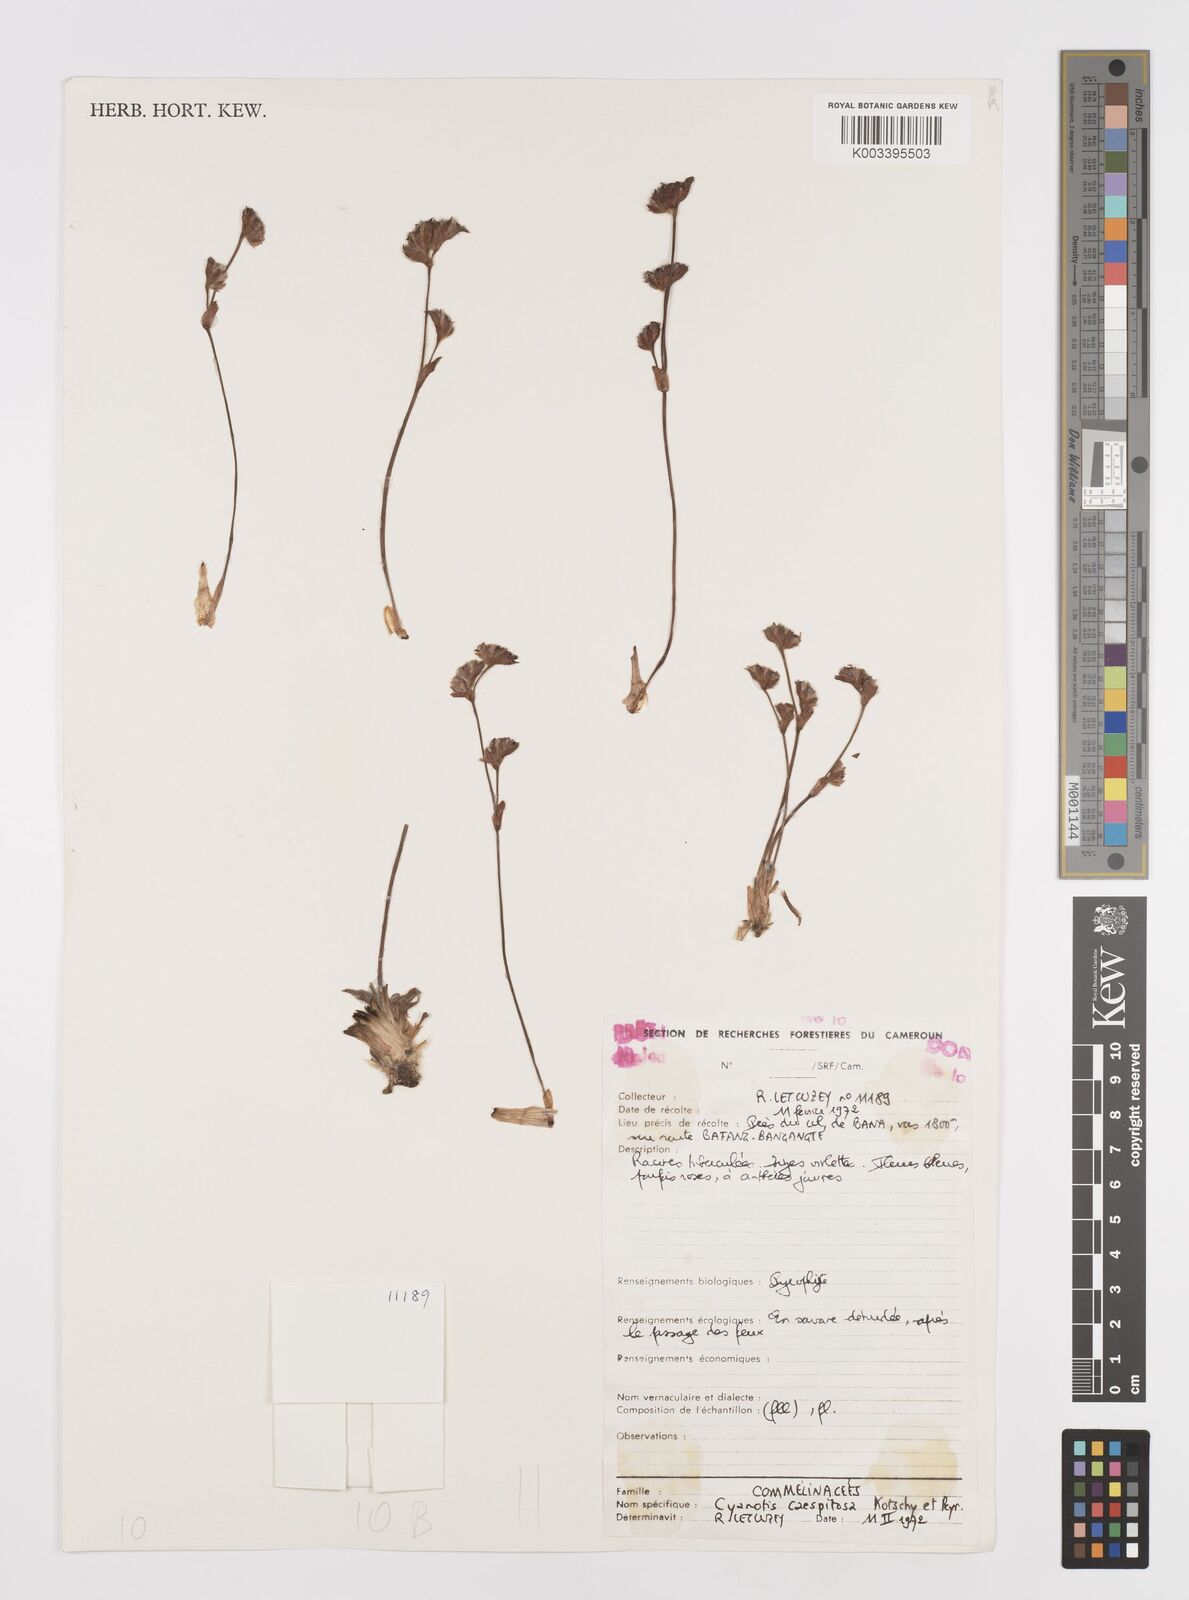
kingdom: Plantae
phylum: Tracheophyta
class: Liliopsida
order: Commelinales
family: Commelinaceae
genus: Cyanotis
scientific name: Cyanotis caespitosa
